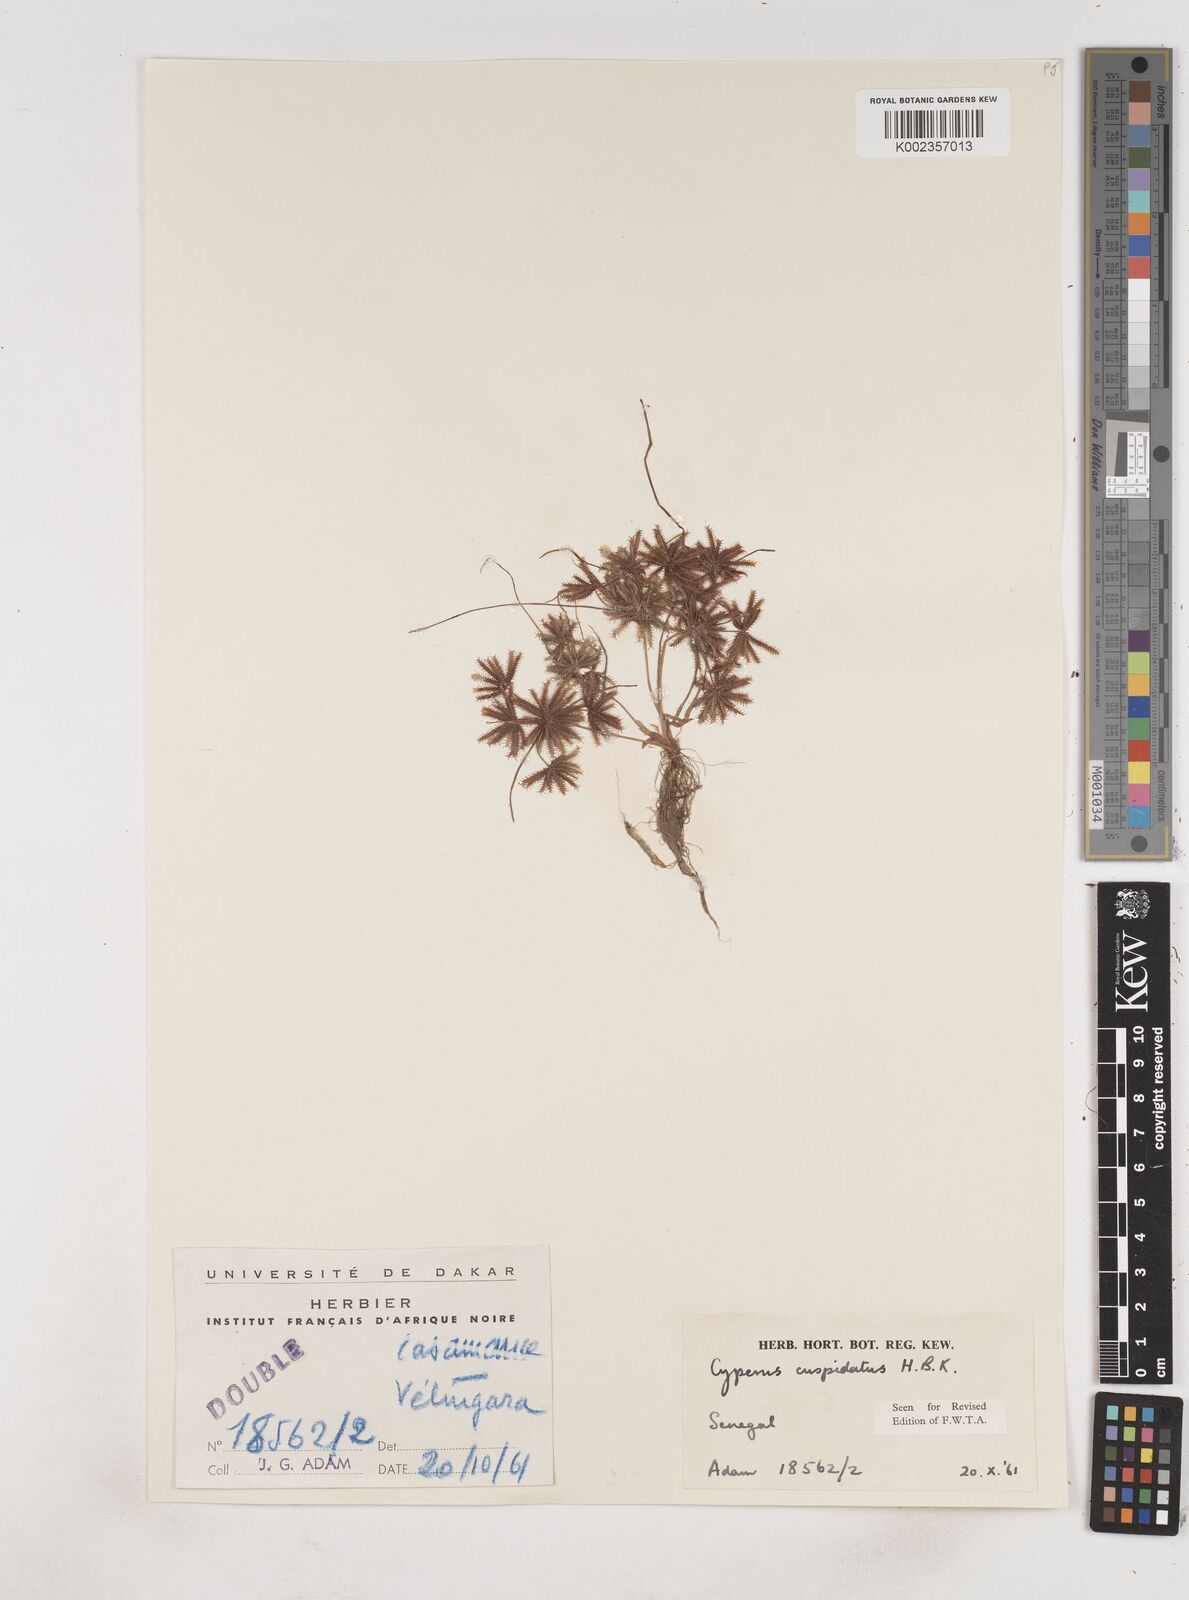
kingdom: Plantae
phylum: Tracheophyta
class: Liliopsida
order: Poales
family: Cyperaceae
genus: Cyperus
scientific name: Cyperus
